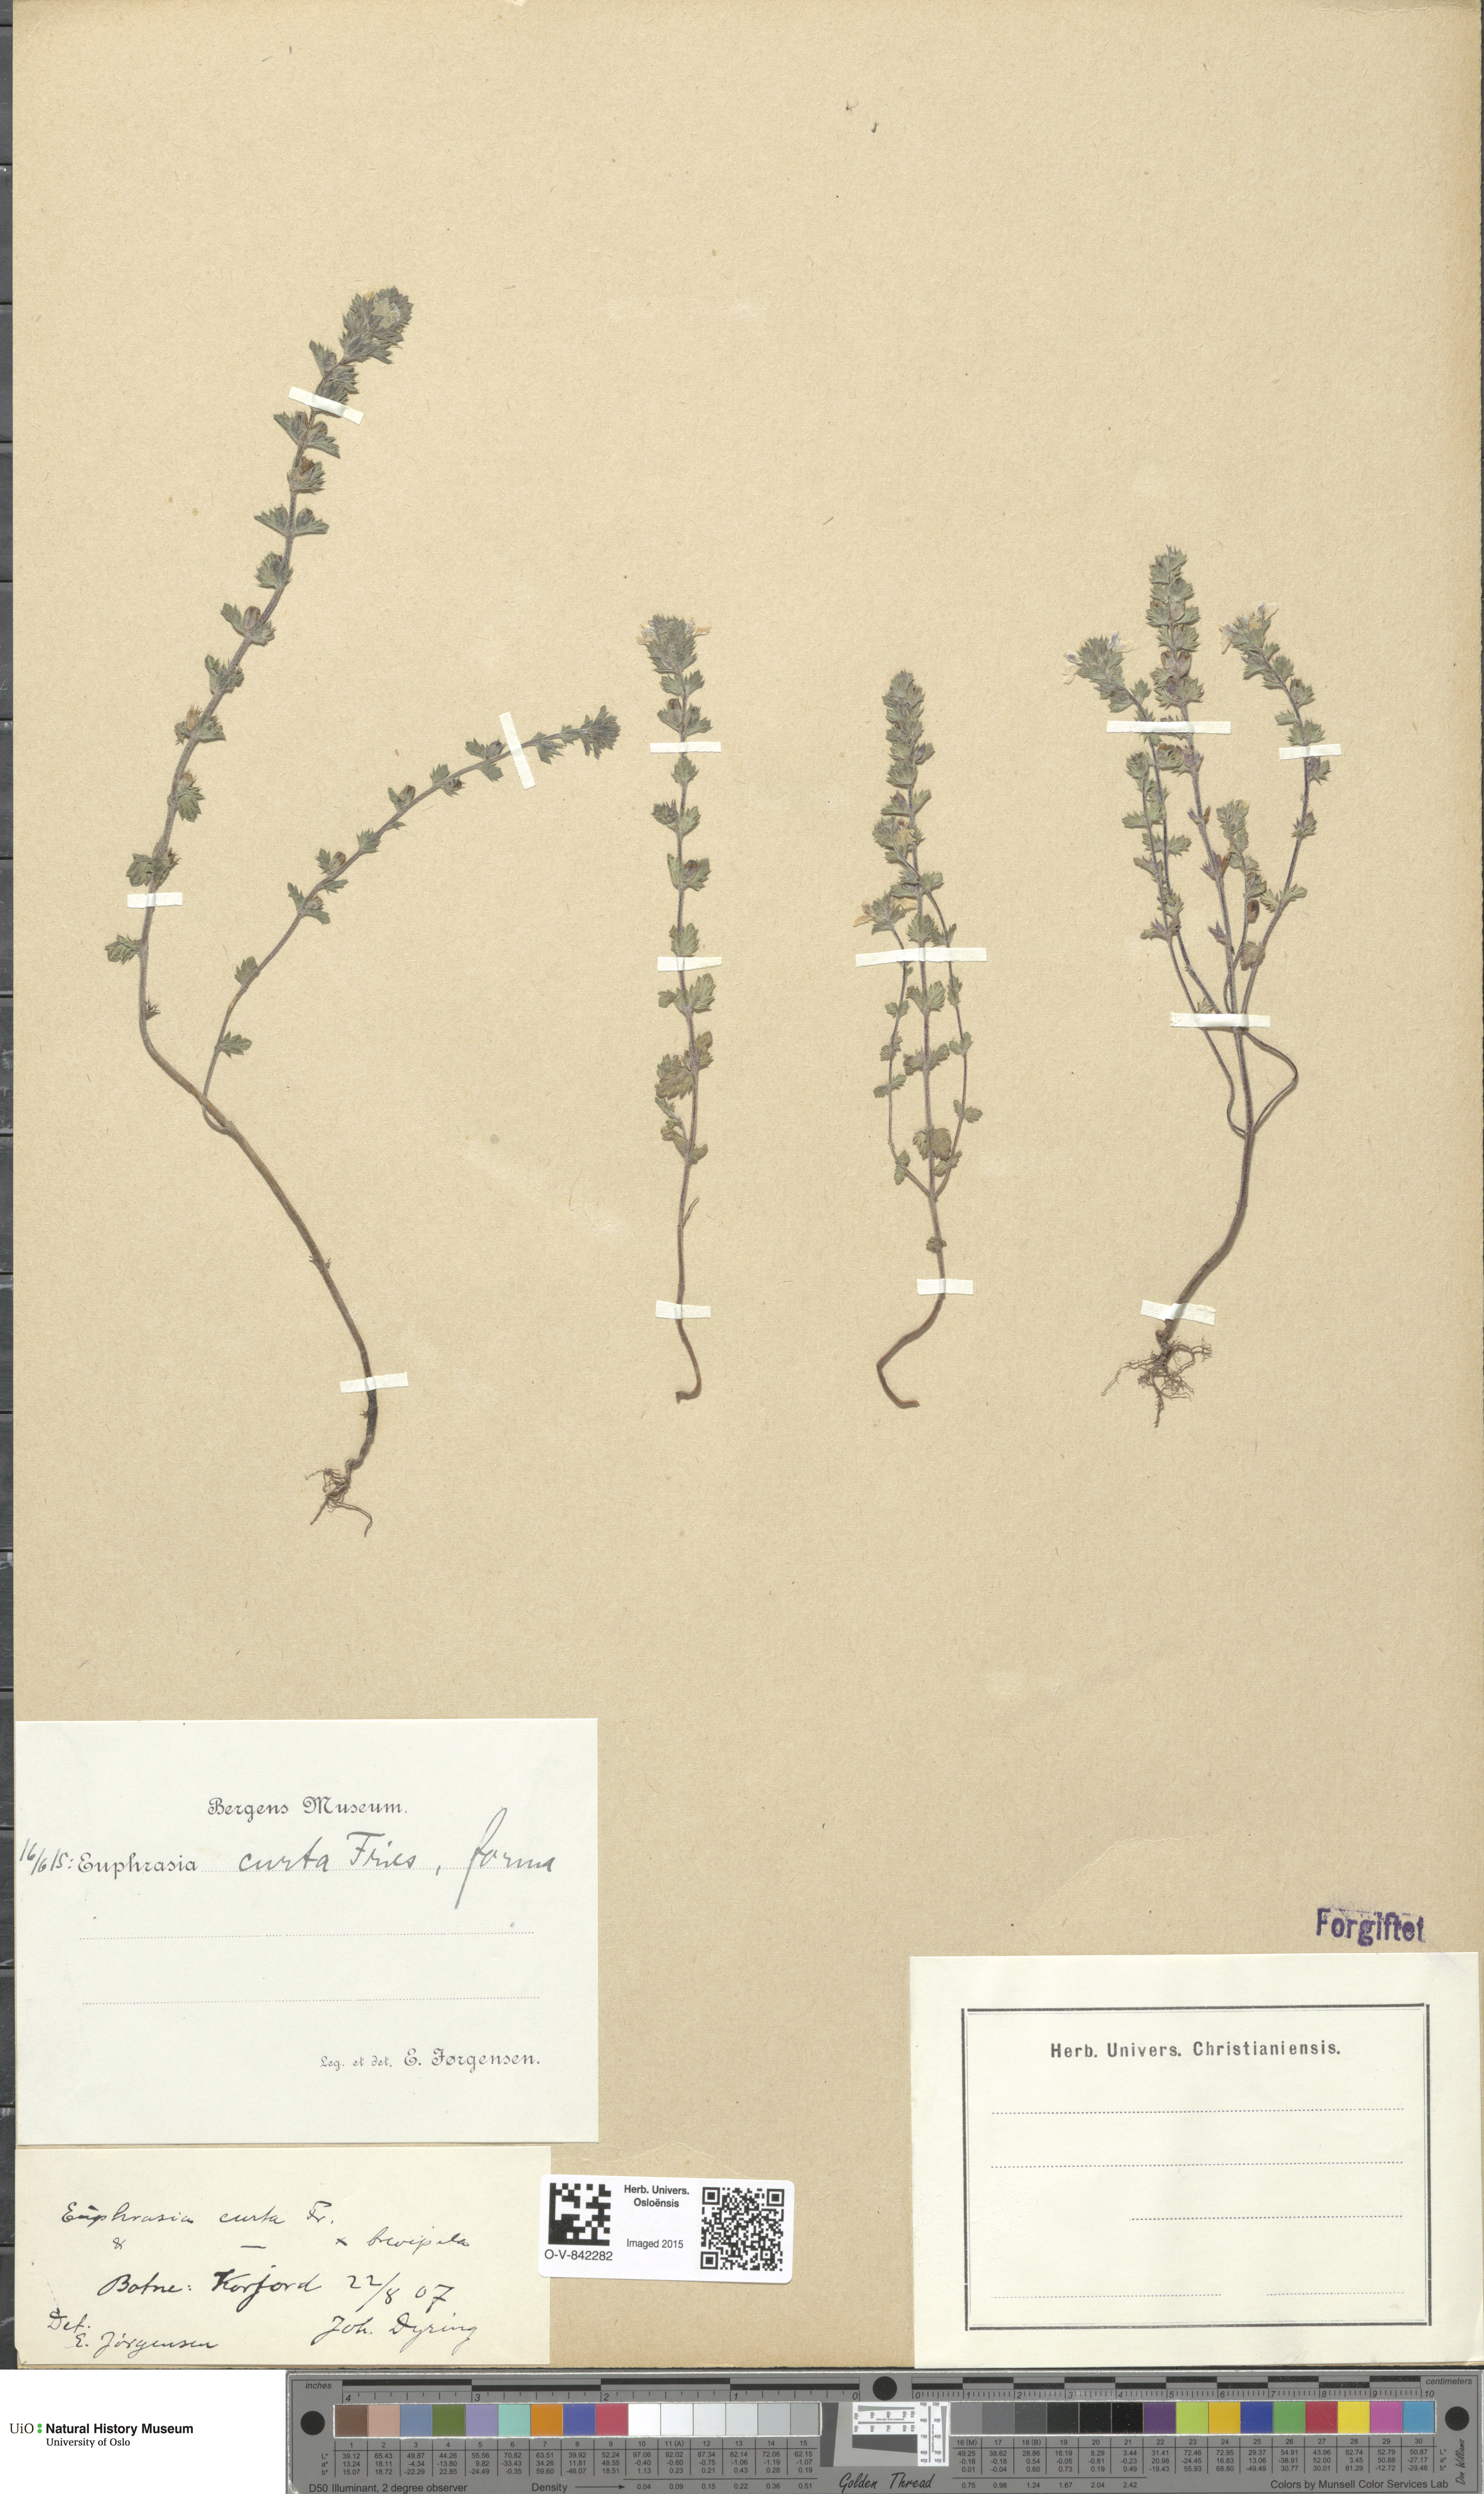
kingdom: Plantae
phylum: Tracheophyta
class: Magnoliopsida
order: Lamiales
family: Orobanchaceae
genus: Euphrasia
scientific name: Euphrasia micrantha
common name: Northern eyebright
